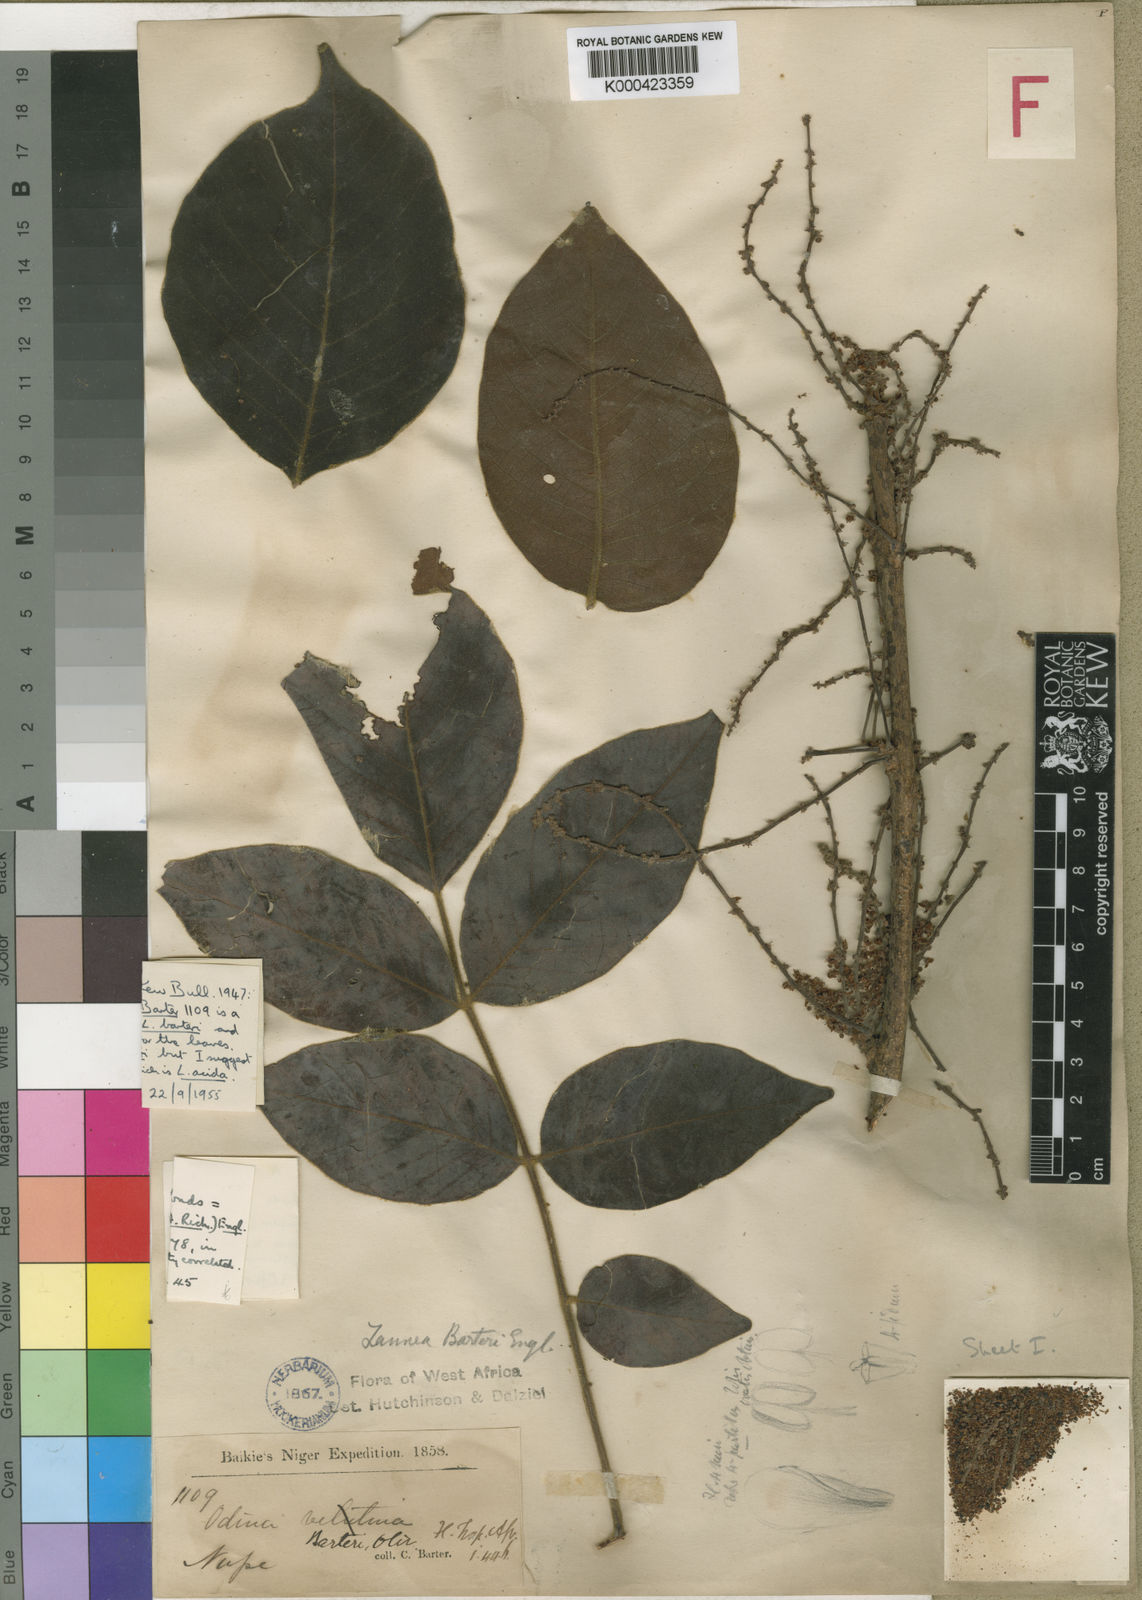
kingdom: Plantae
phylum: Tracheophyta
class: Magnoliopsida
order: Sapindales
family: Anacardiaceae
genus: Lannea
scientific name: Lannea barteri
